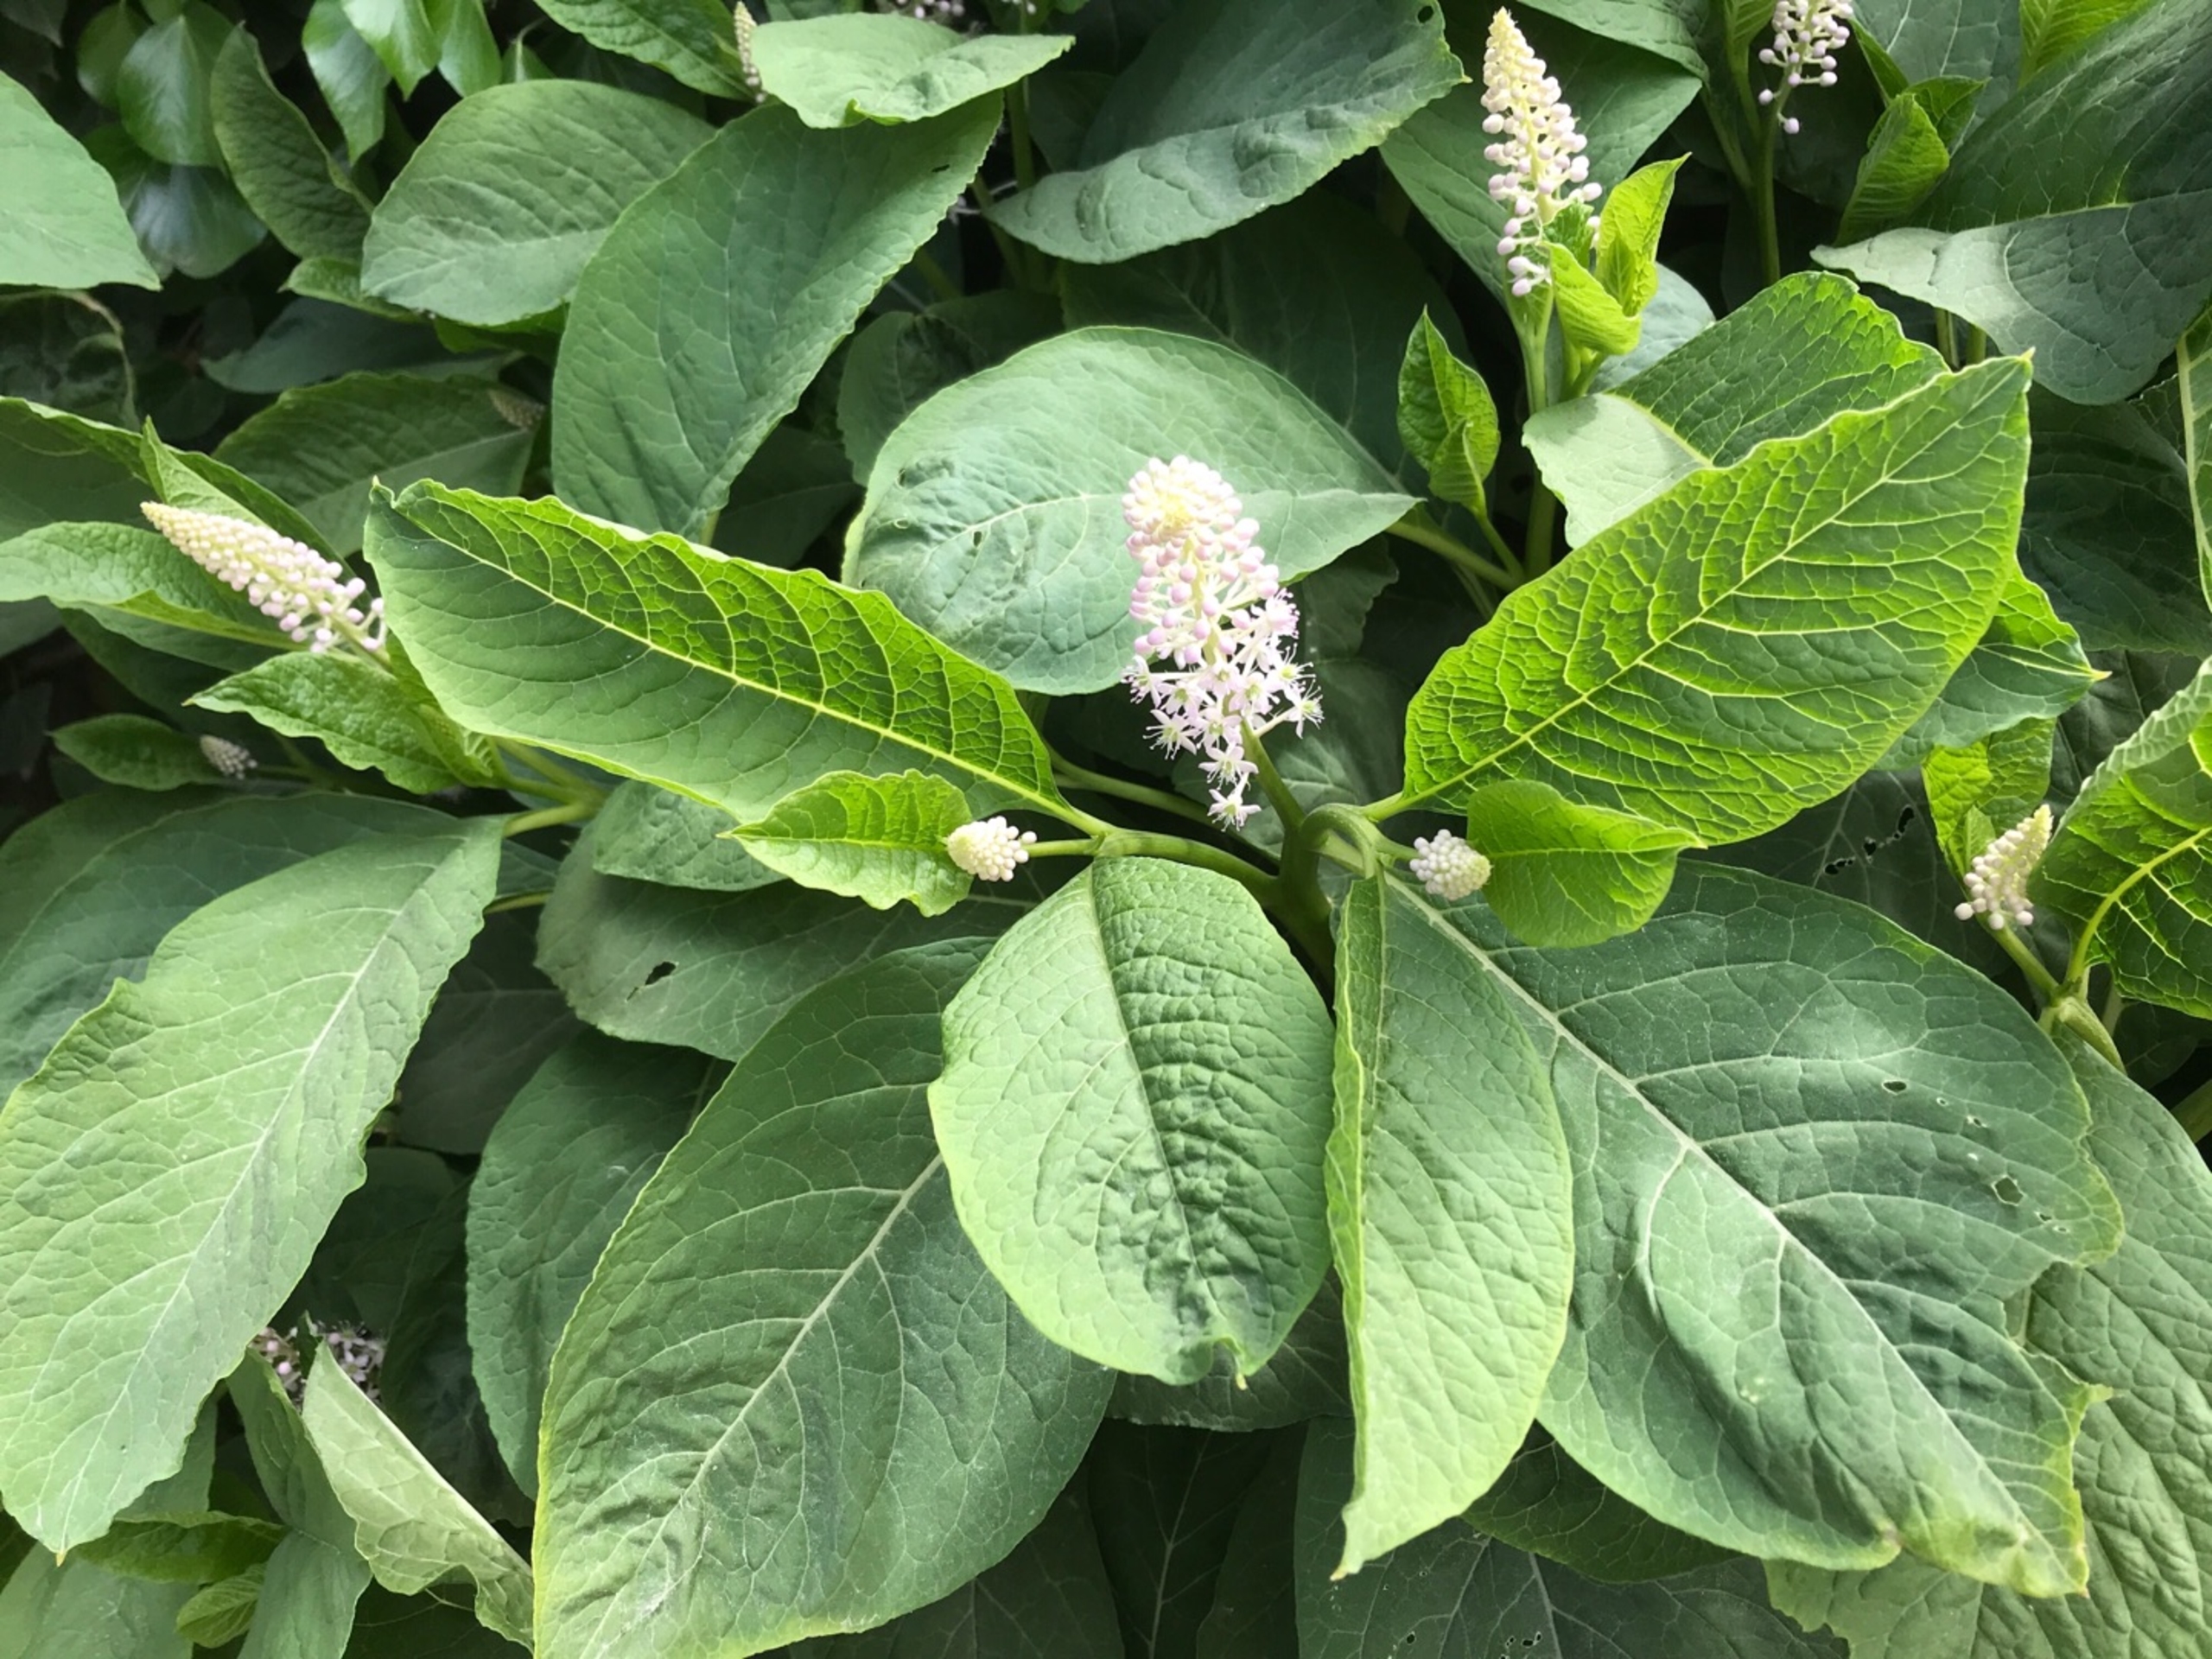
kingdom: Plantae
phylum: Tracheophyta
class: Magnoliopsida
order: Caryophyllales
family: Phytolaccaceae
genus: Phytolacca
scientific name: Phytolacca acinosa
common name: Asiatisk kermesbær
